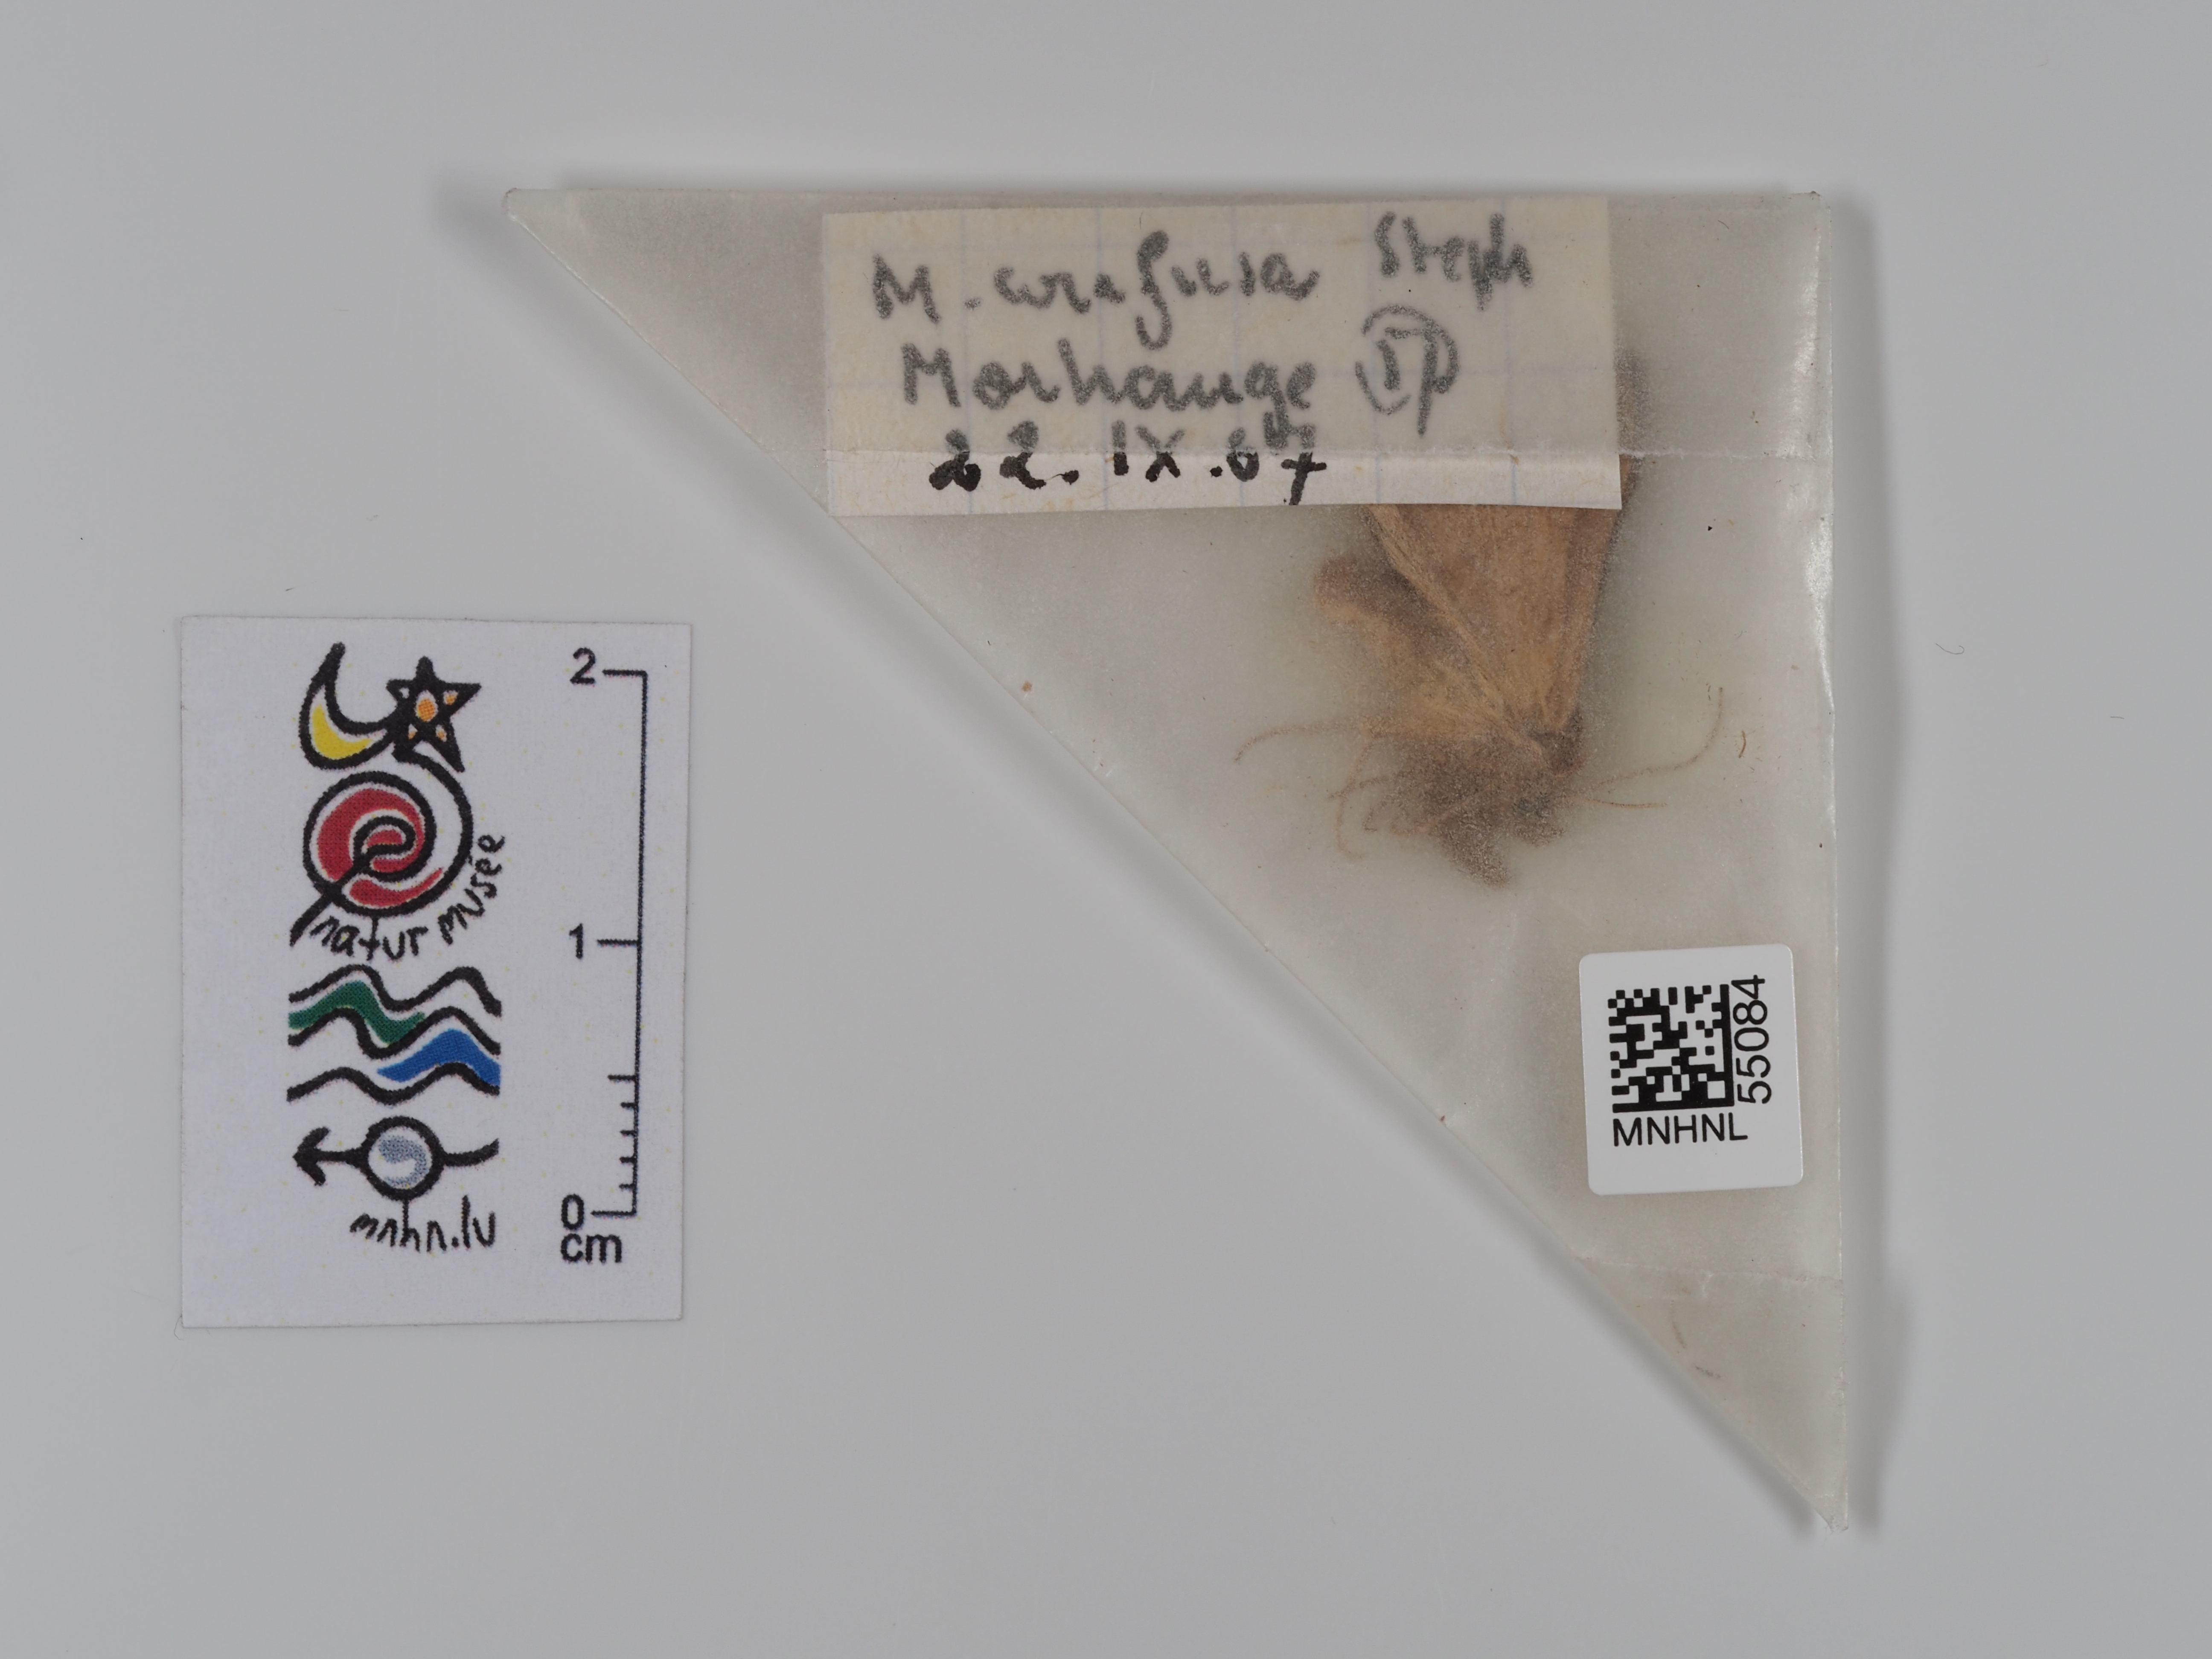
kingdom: Animalia
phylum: Arthropoda
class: Insecta
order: Lepidoptera
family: Noctuidae
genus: Macdunnoughia
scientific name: Macdunnoughia confusa
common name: Dewick's plusia
